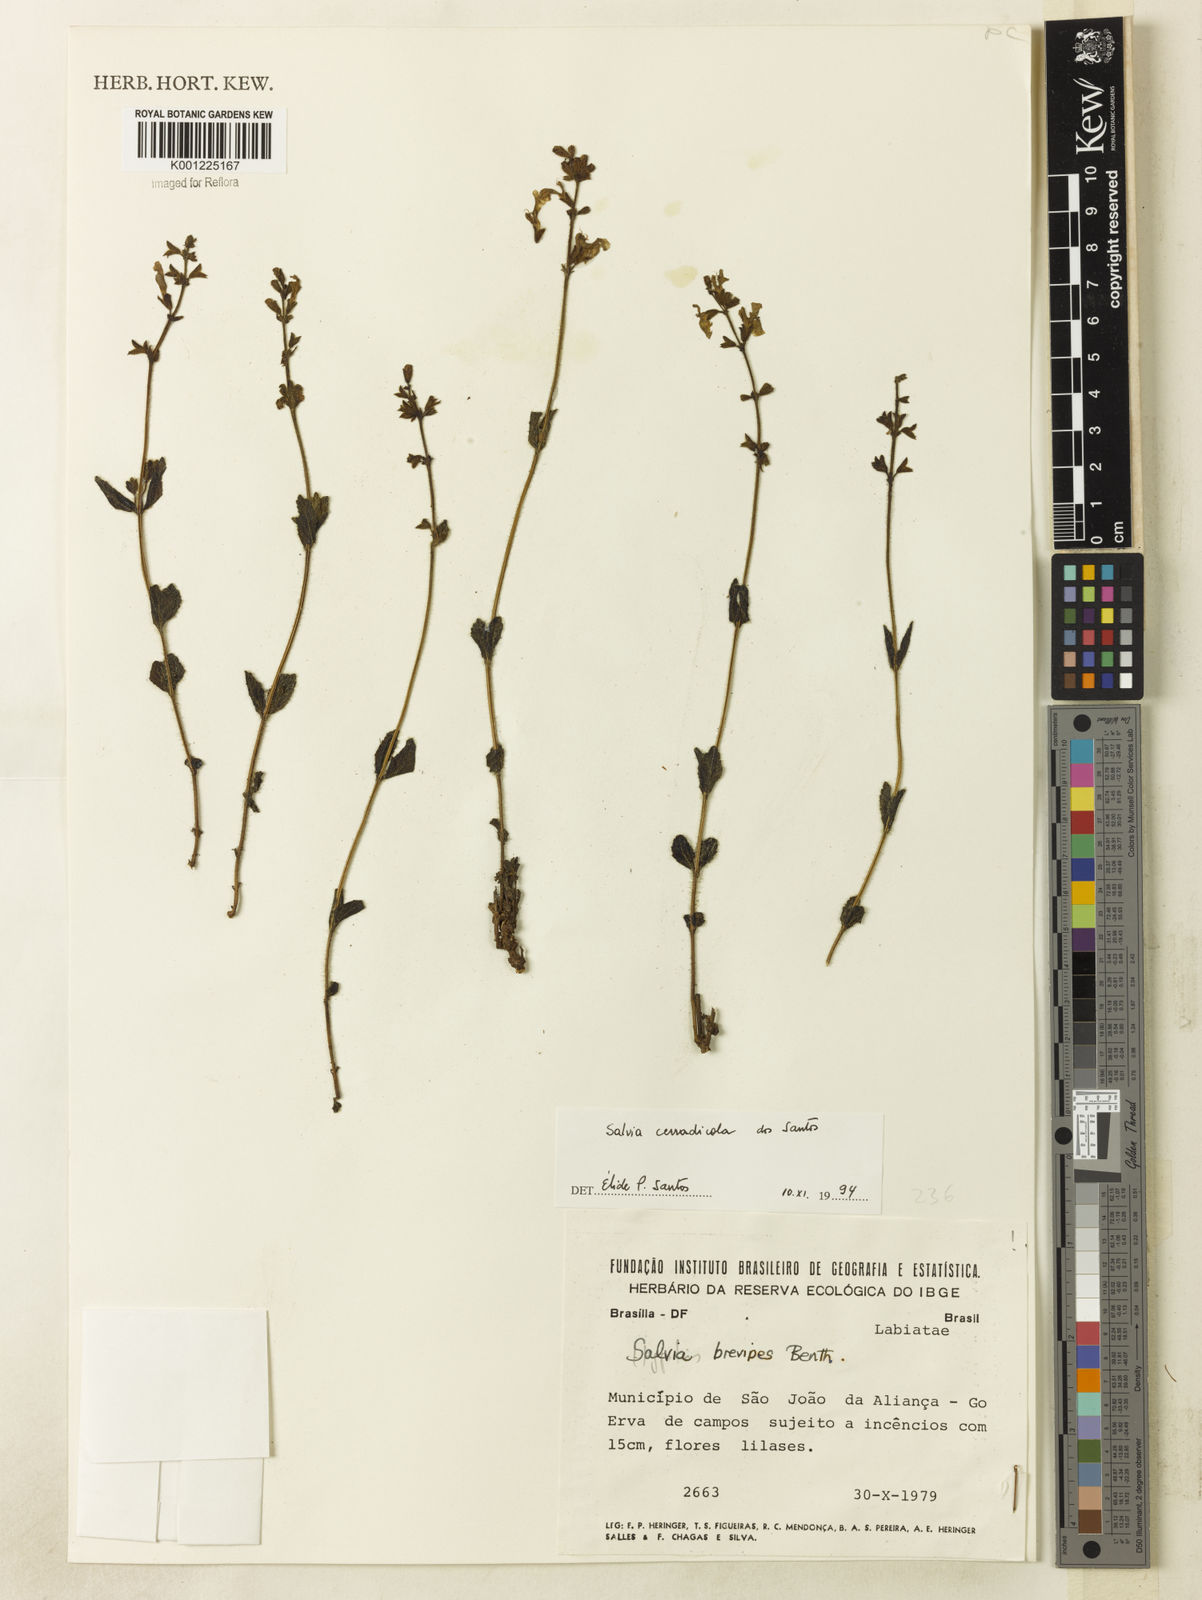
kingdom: Plantae
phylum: Tracheophyta
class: Magnoliopsida
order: Lamiales
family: Lamiaceae
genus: Salvia
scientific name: Salvia cerradicola
